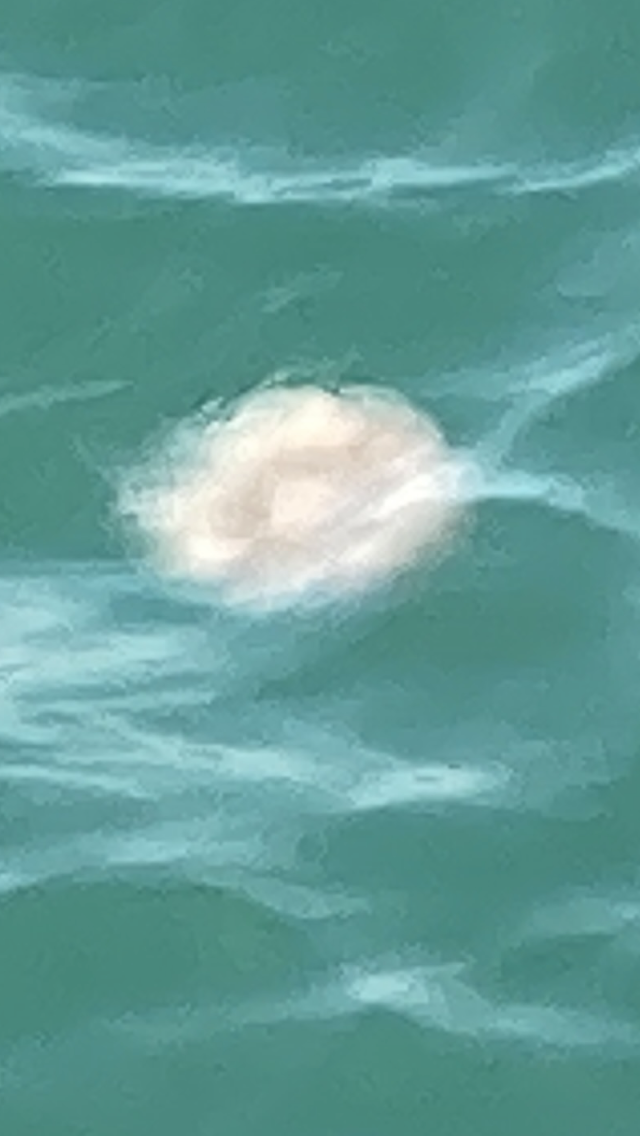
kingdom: Animalia
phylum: Cnidaria
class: Scyphozoa
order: Semaeostomeae
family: Cyaneidae
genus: Cyanea
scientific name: Cyanea nozakii
